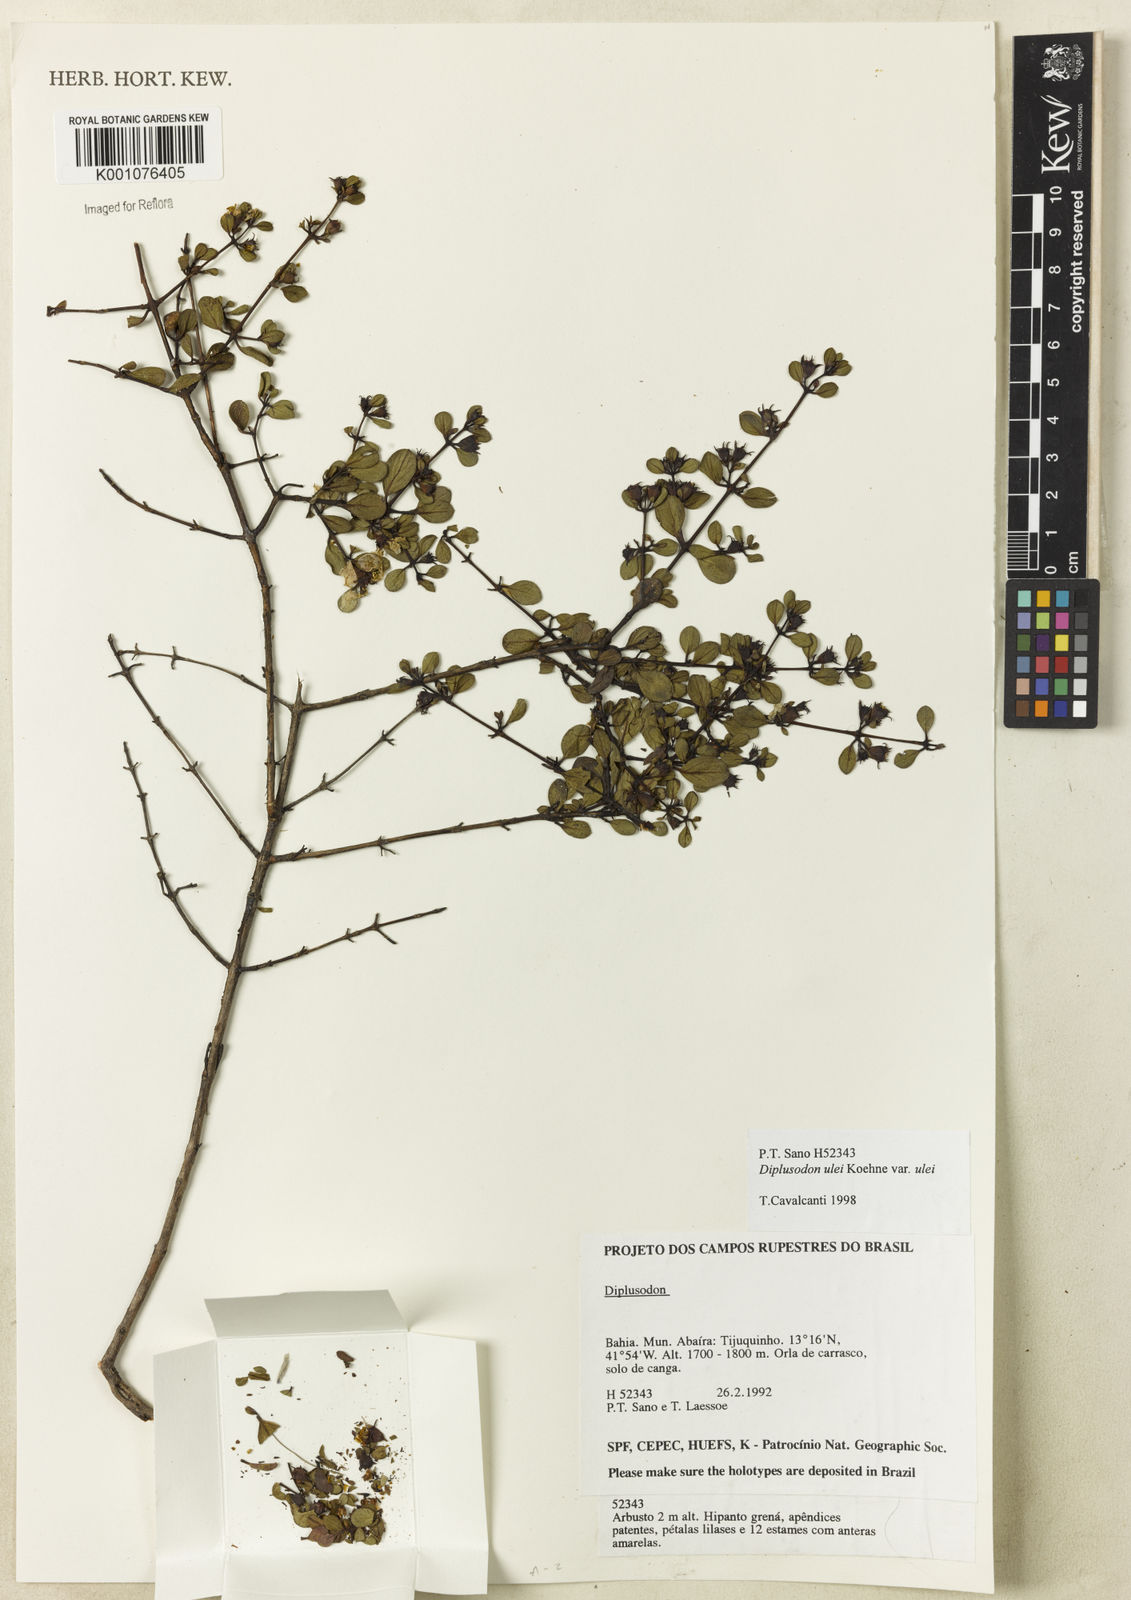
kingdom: Plantae
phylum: Tracheophyta
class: Magnoliopsida
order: Myrtales
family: Lythraceae
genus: Diplusodon
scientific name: Diplusodon ulei
